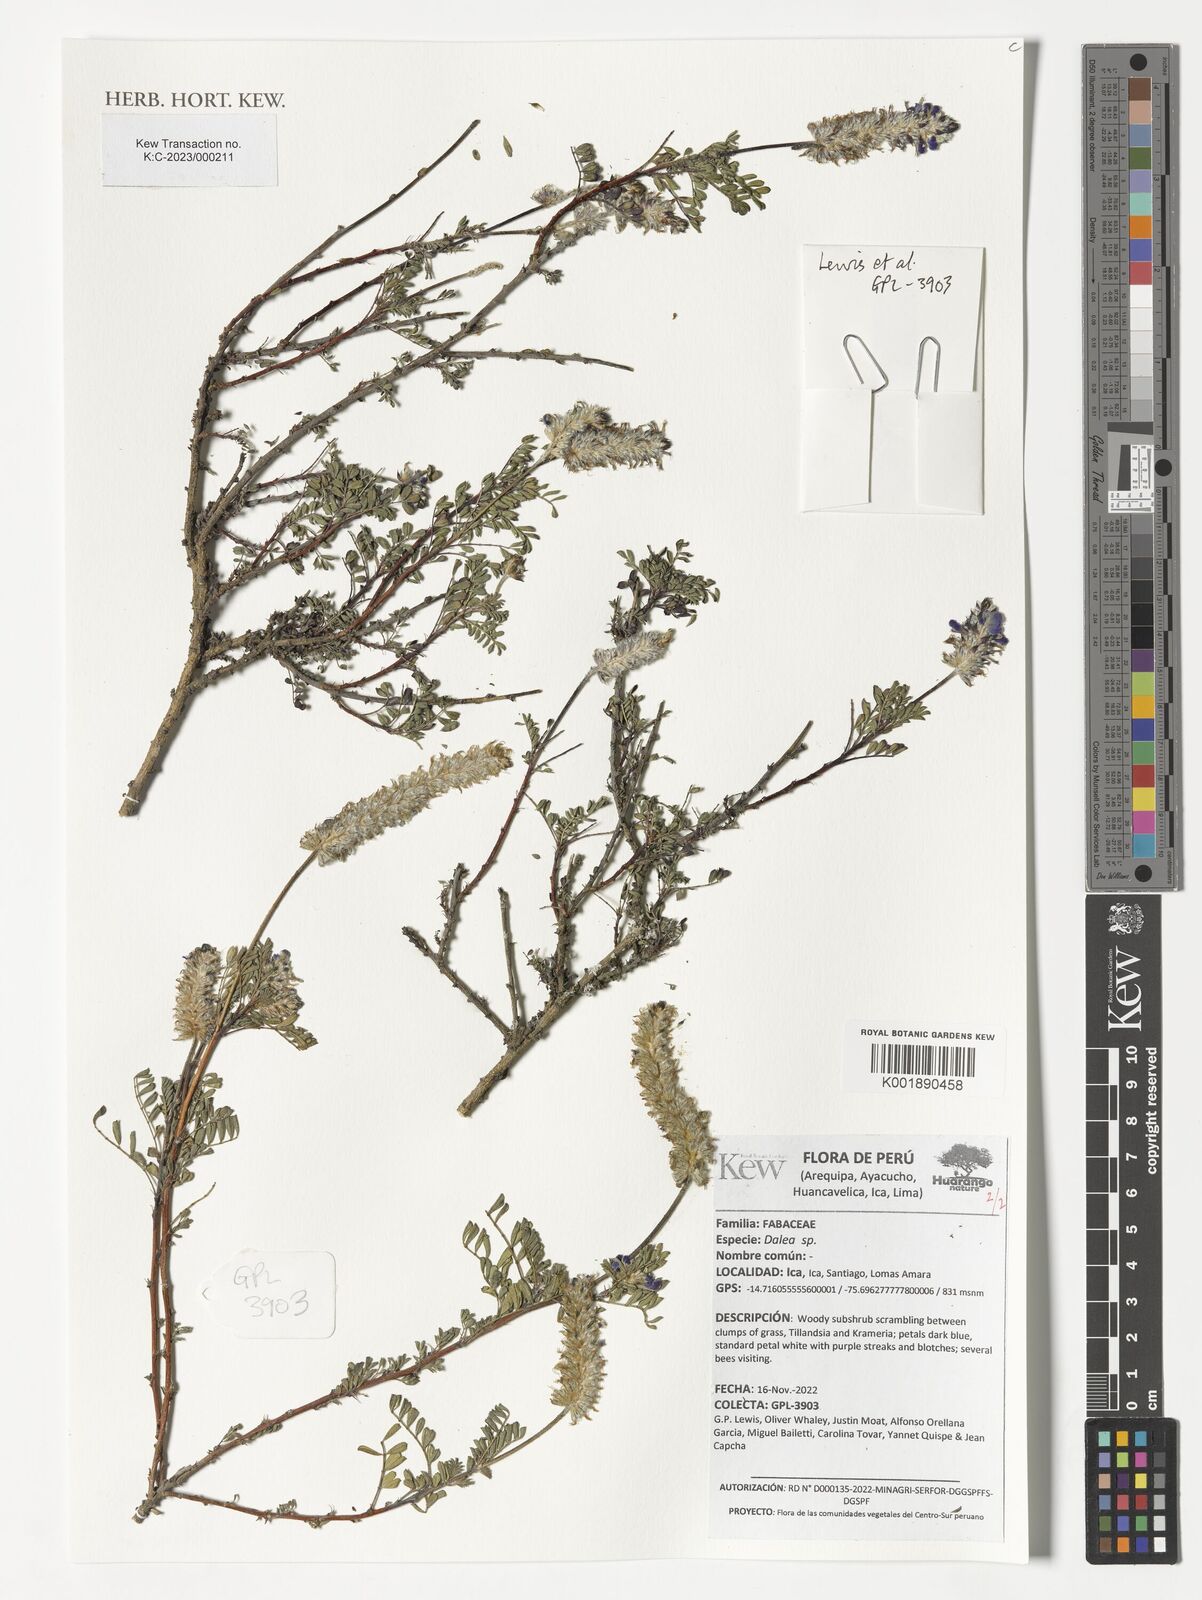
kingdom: Plantae
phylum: Tracheophyta
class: Magnoliopsida
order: Fabales
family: Fabaceae
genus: Dalea
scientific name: Dalea
